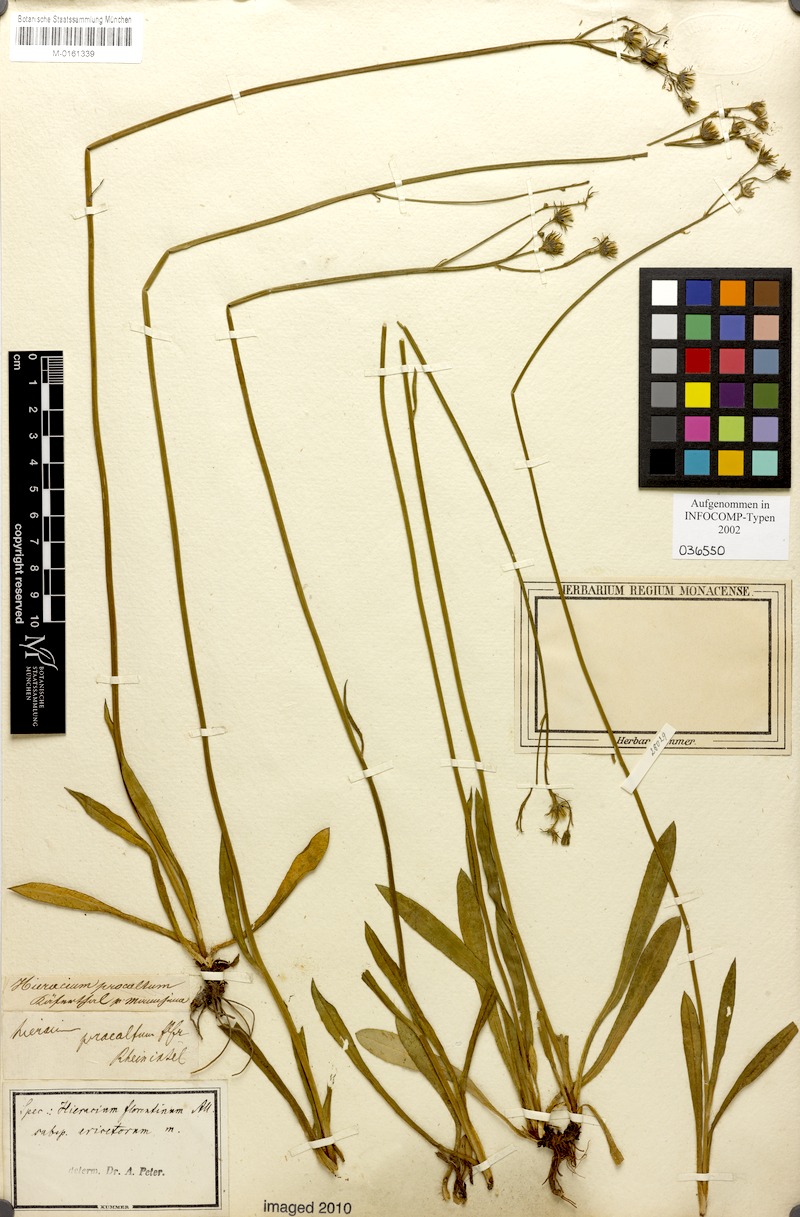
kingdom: Plantae
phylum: Tracheophyta
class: Magnoliopsida
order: Asterales
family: Asteraceae
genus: Pilosella
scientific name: Pilosella piloselloides
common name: Glaucous king-devil
